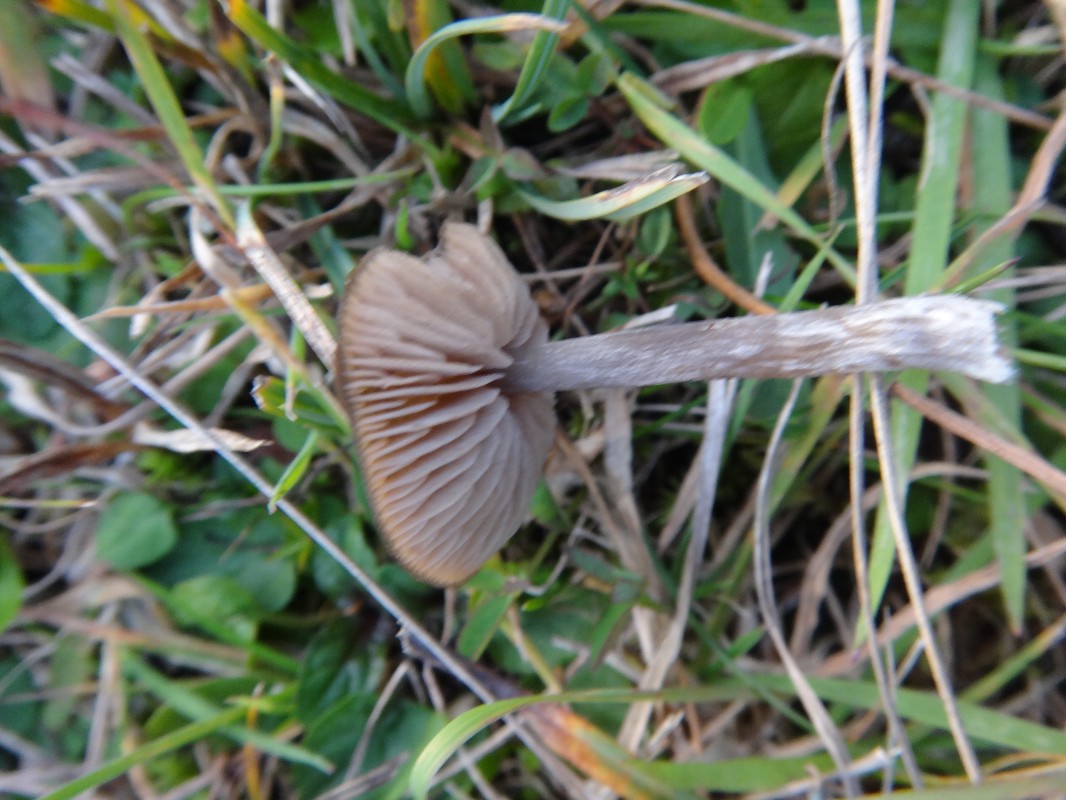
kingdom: Fungi
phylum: Basidiomycota
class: Agaricomycetes
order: Agaricales
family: Entolomataceae
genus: Entoloma
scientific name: Entoloma sericeum
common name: silkeglinsende rødblad
